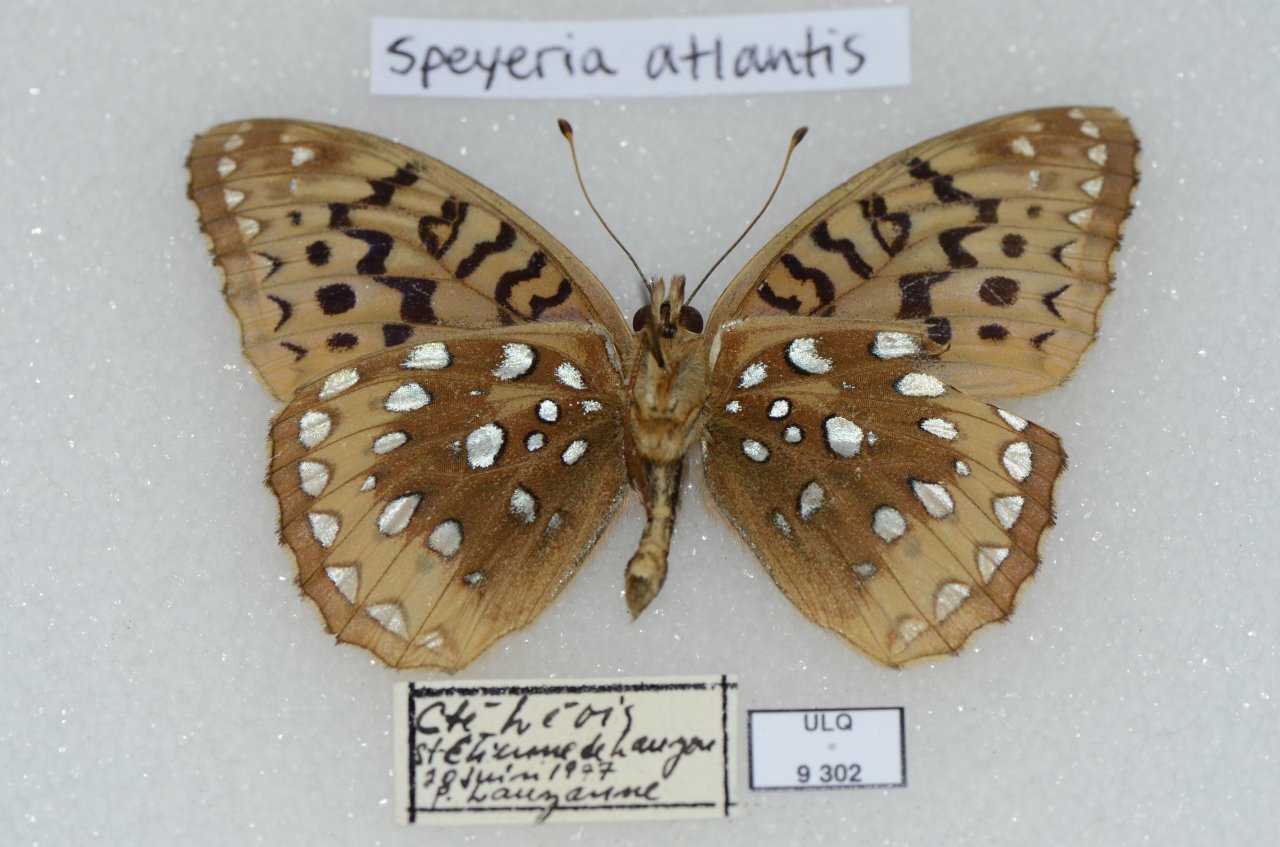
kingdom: Animalia
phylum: Arthropoda
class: Insecta
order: Lepidoptera
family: Nymphalidae
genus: Speyeria
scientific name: Speyeria cybele
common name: Great Spangled Fritillary
